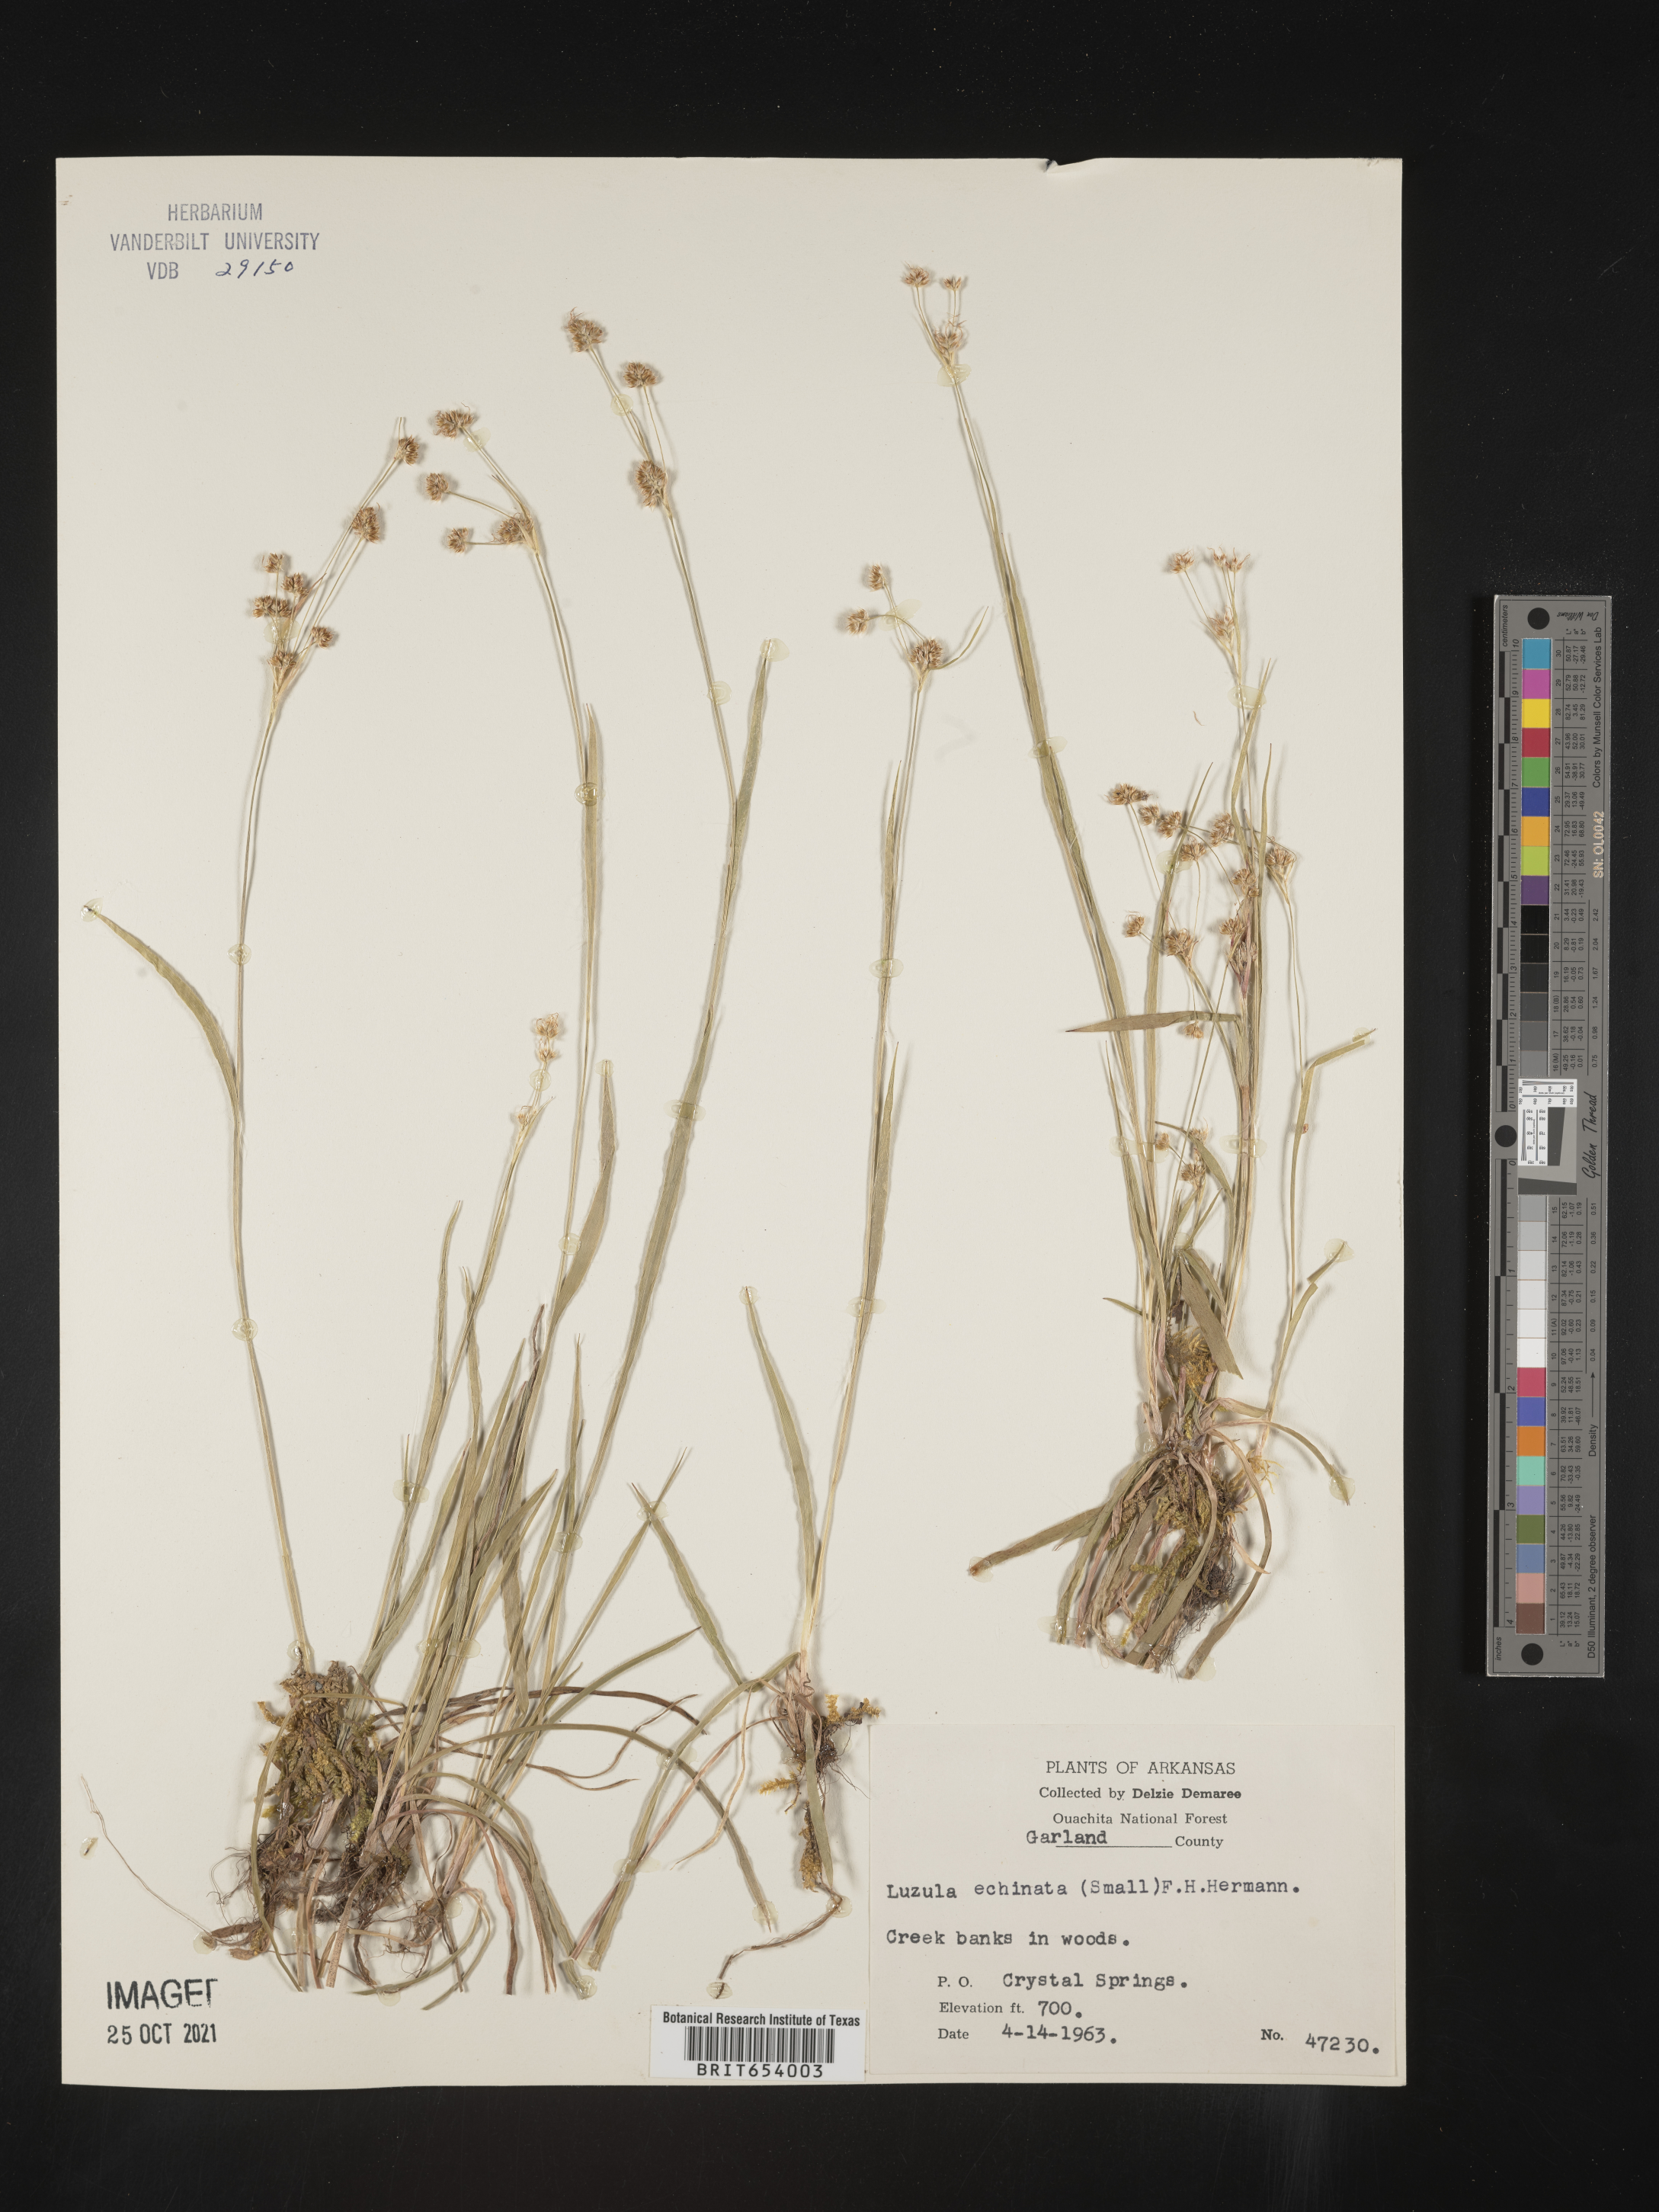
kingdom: Plantae
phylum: Tracheophyta
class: Liliopsida
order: Poales
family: Juncaceae
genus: Luzula
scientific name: Luzula echinata
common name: Hedgehog woodrush
